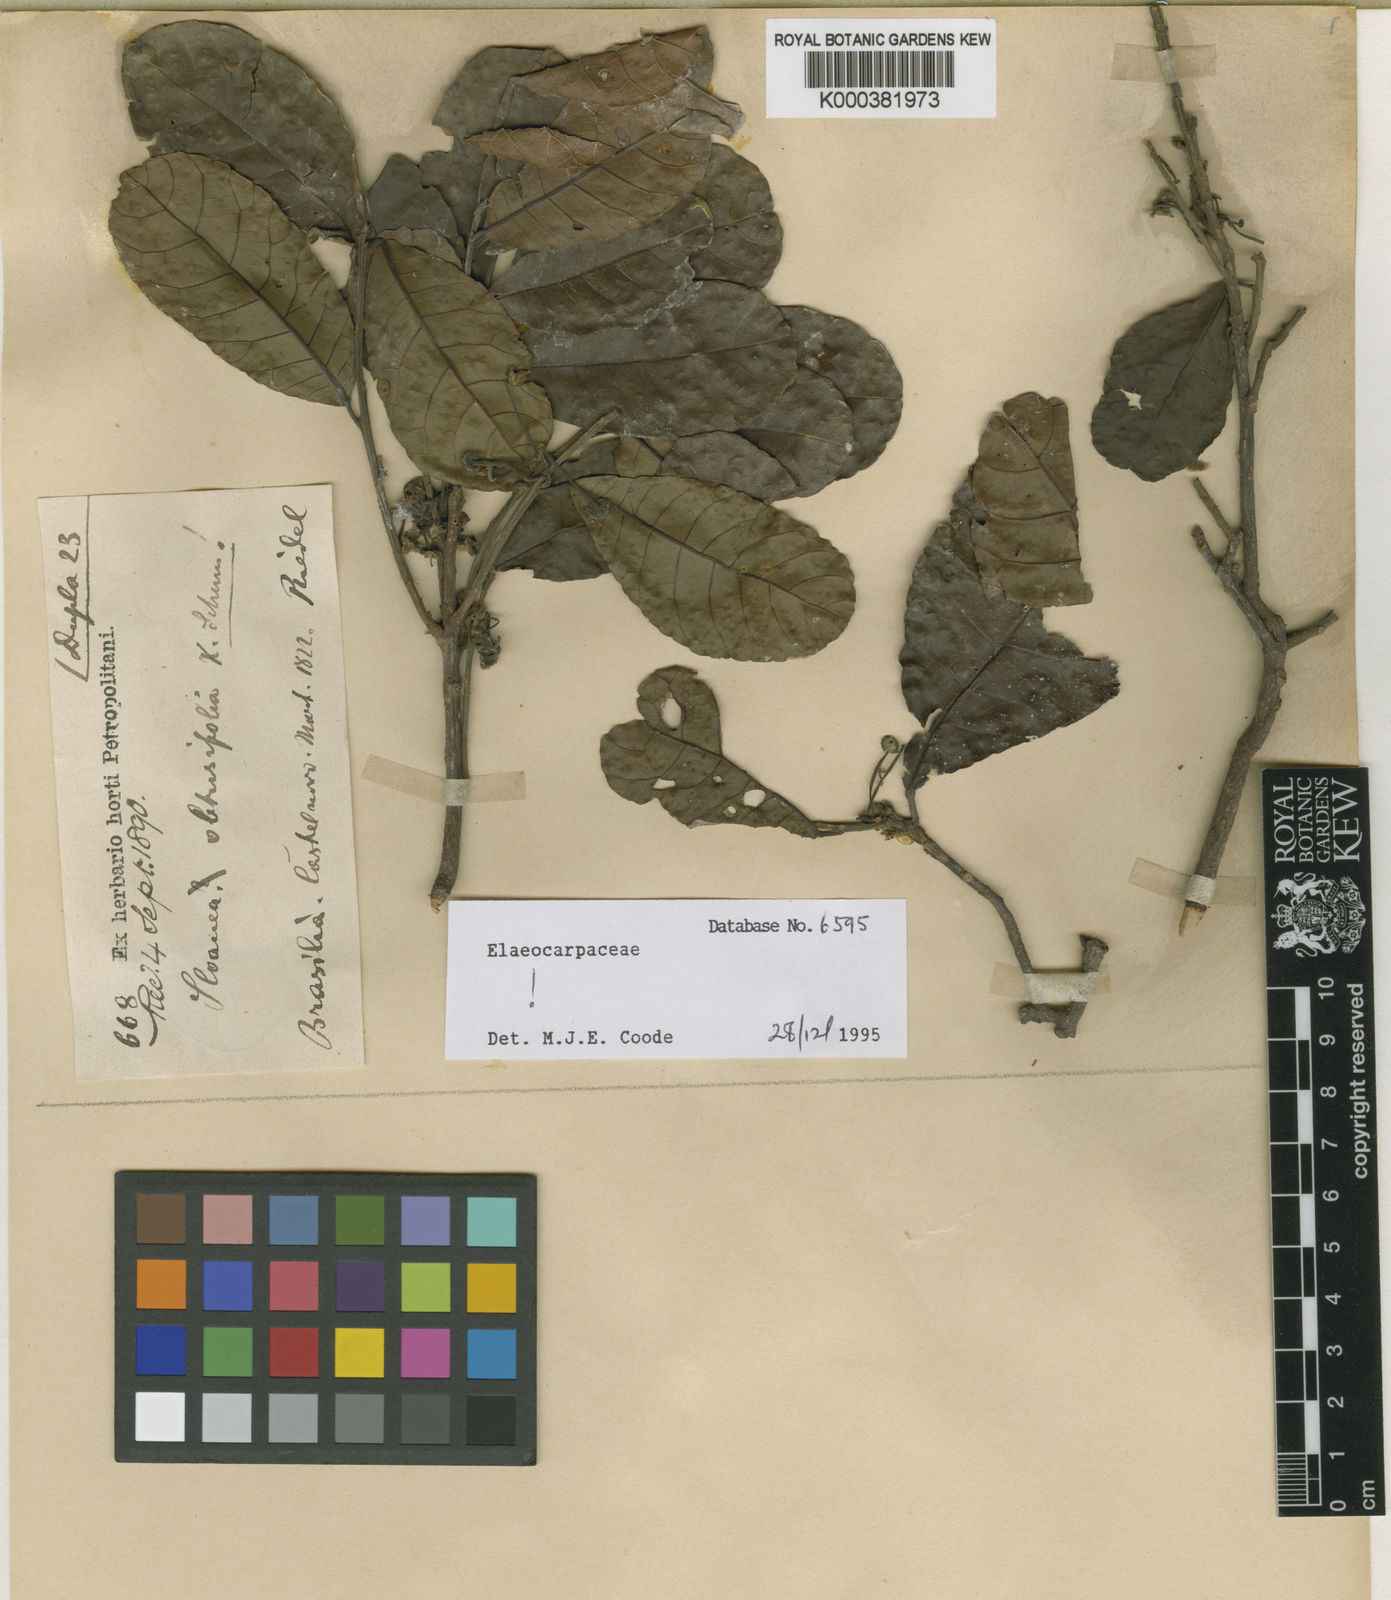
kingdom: Plantae
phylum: Tracheophyta
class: Magnoliopsida
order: Oxalidales
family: Elaeocarpaceae
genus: Sloanea
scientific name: Sloanea obtusifolia
